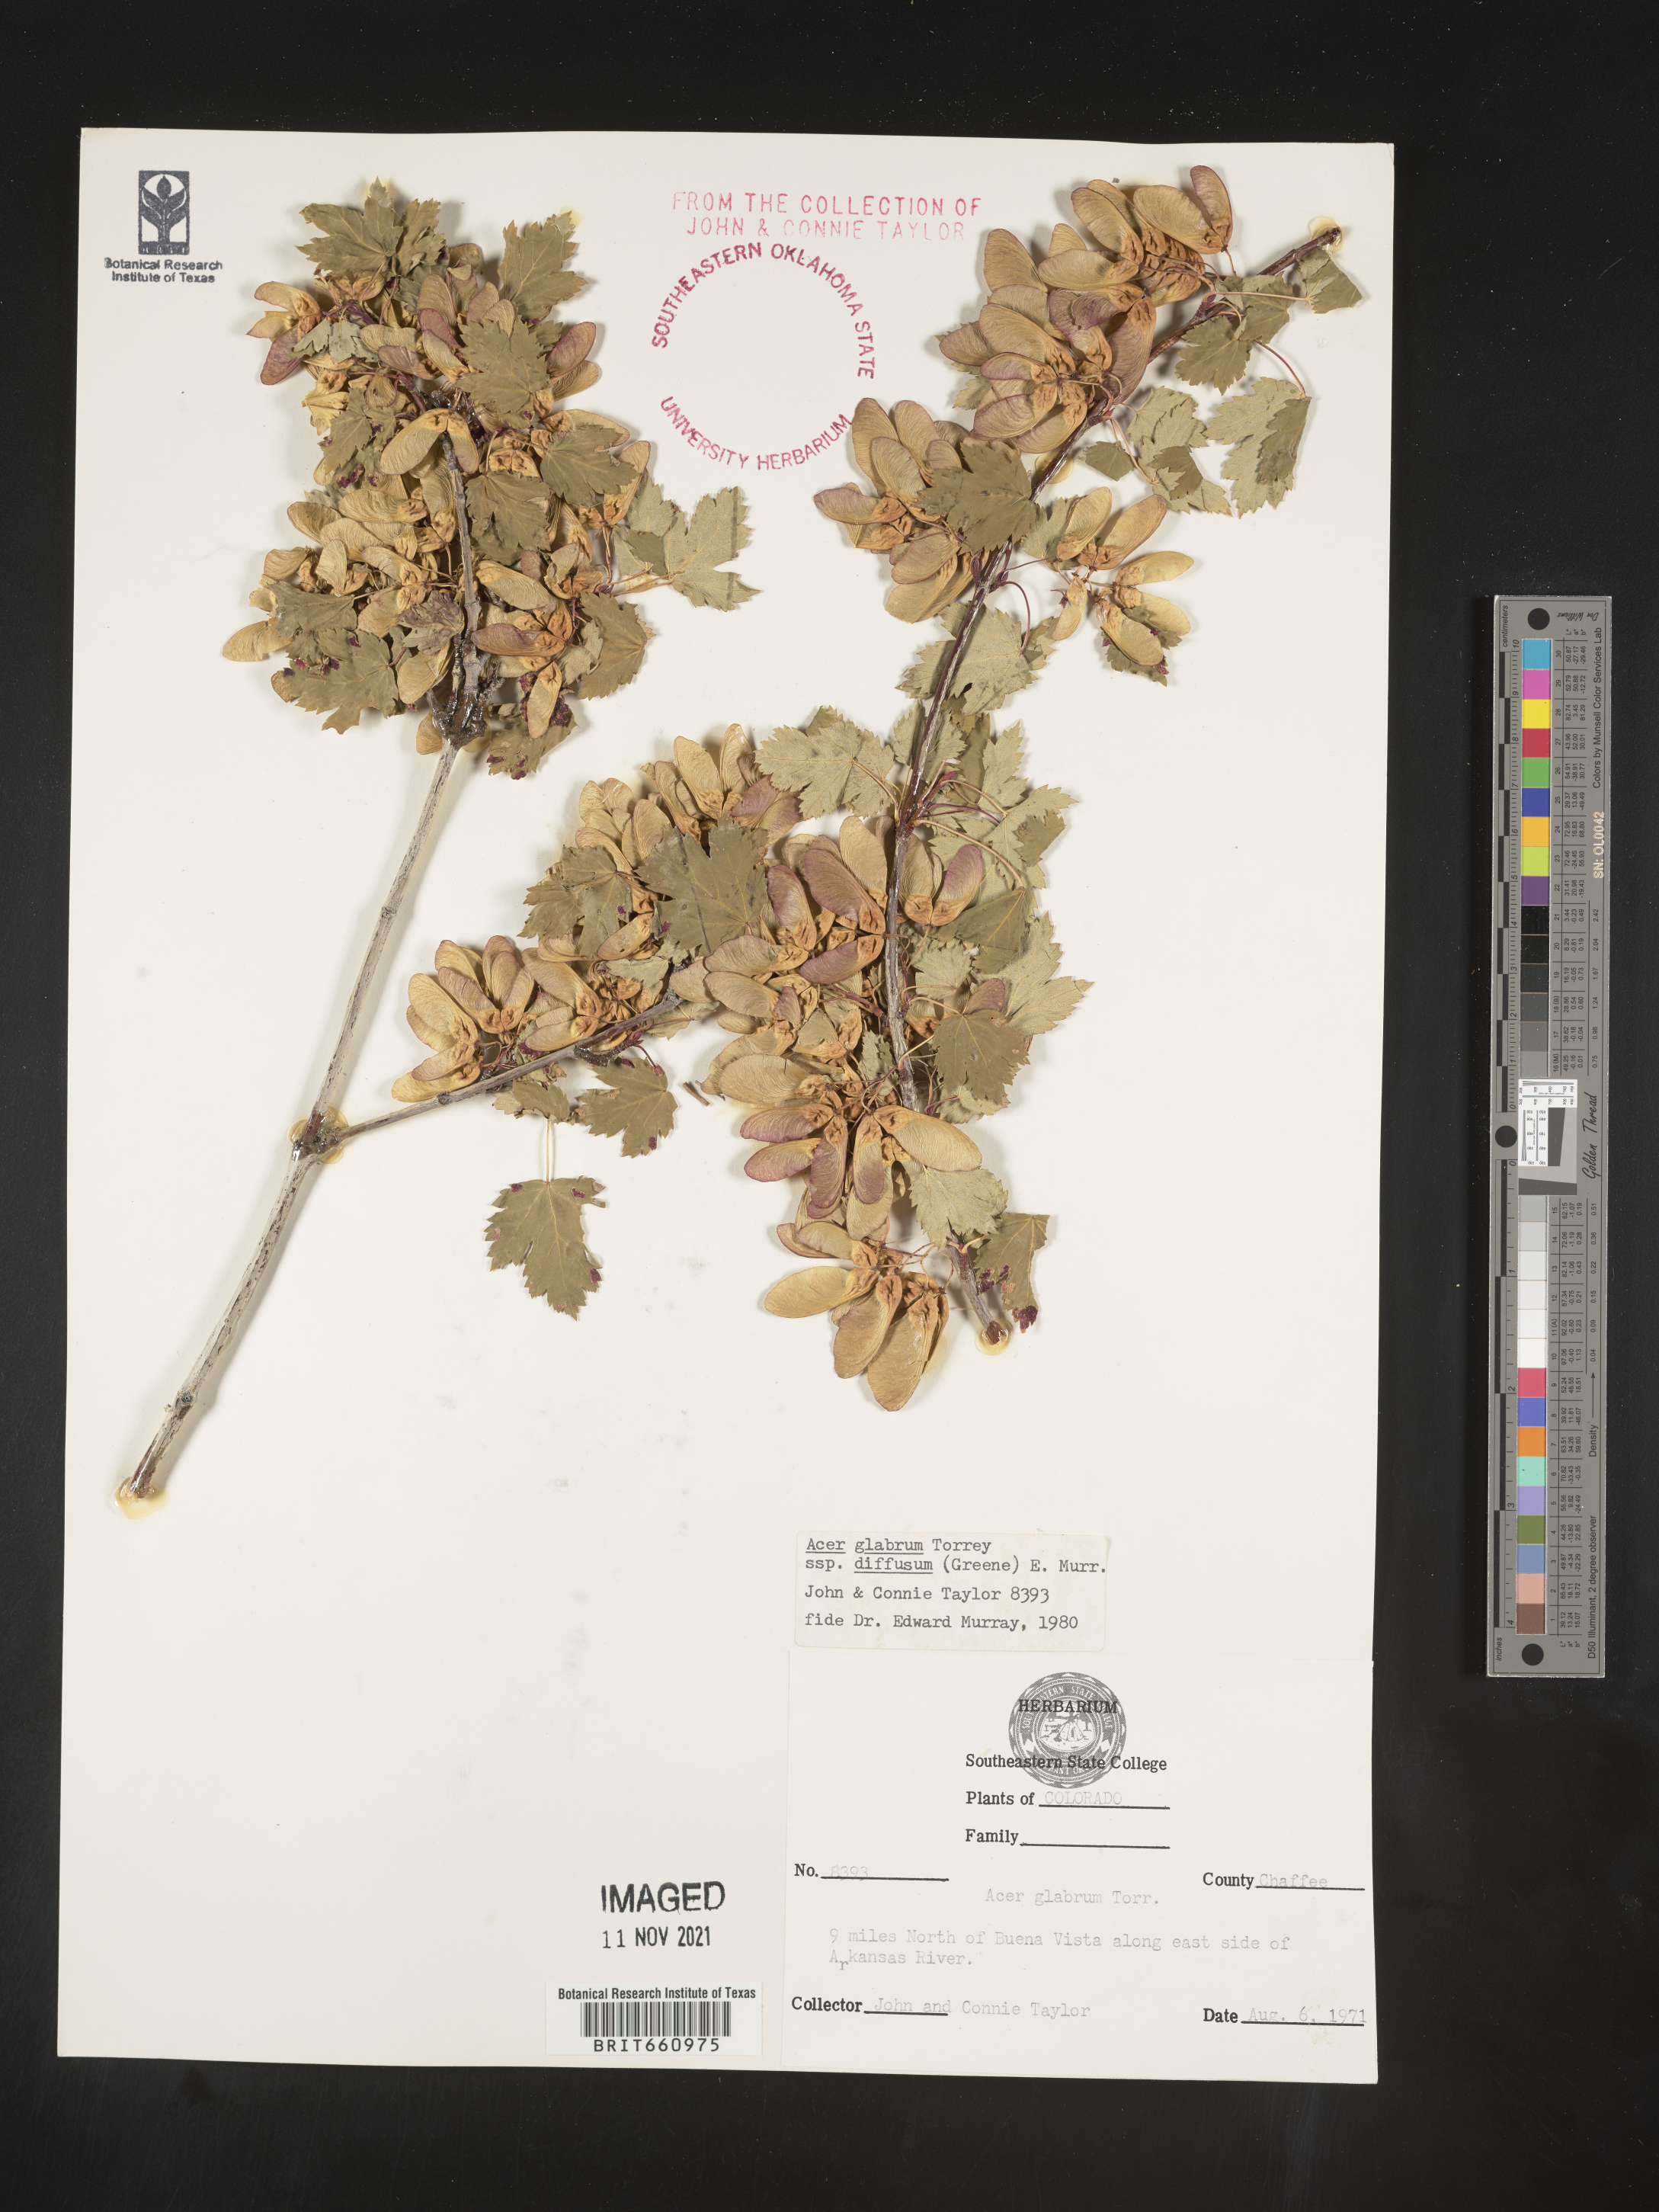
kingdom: Plantae
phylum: Tracheophyta
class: Magnoliopsida
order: Sapindales
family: Sapindaceae
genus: Acer
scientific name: Acer glabrum
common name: Rocky mountain maple
